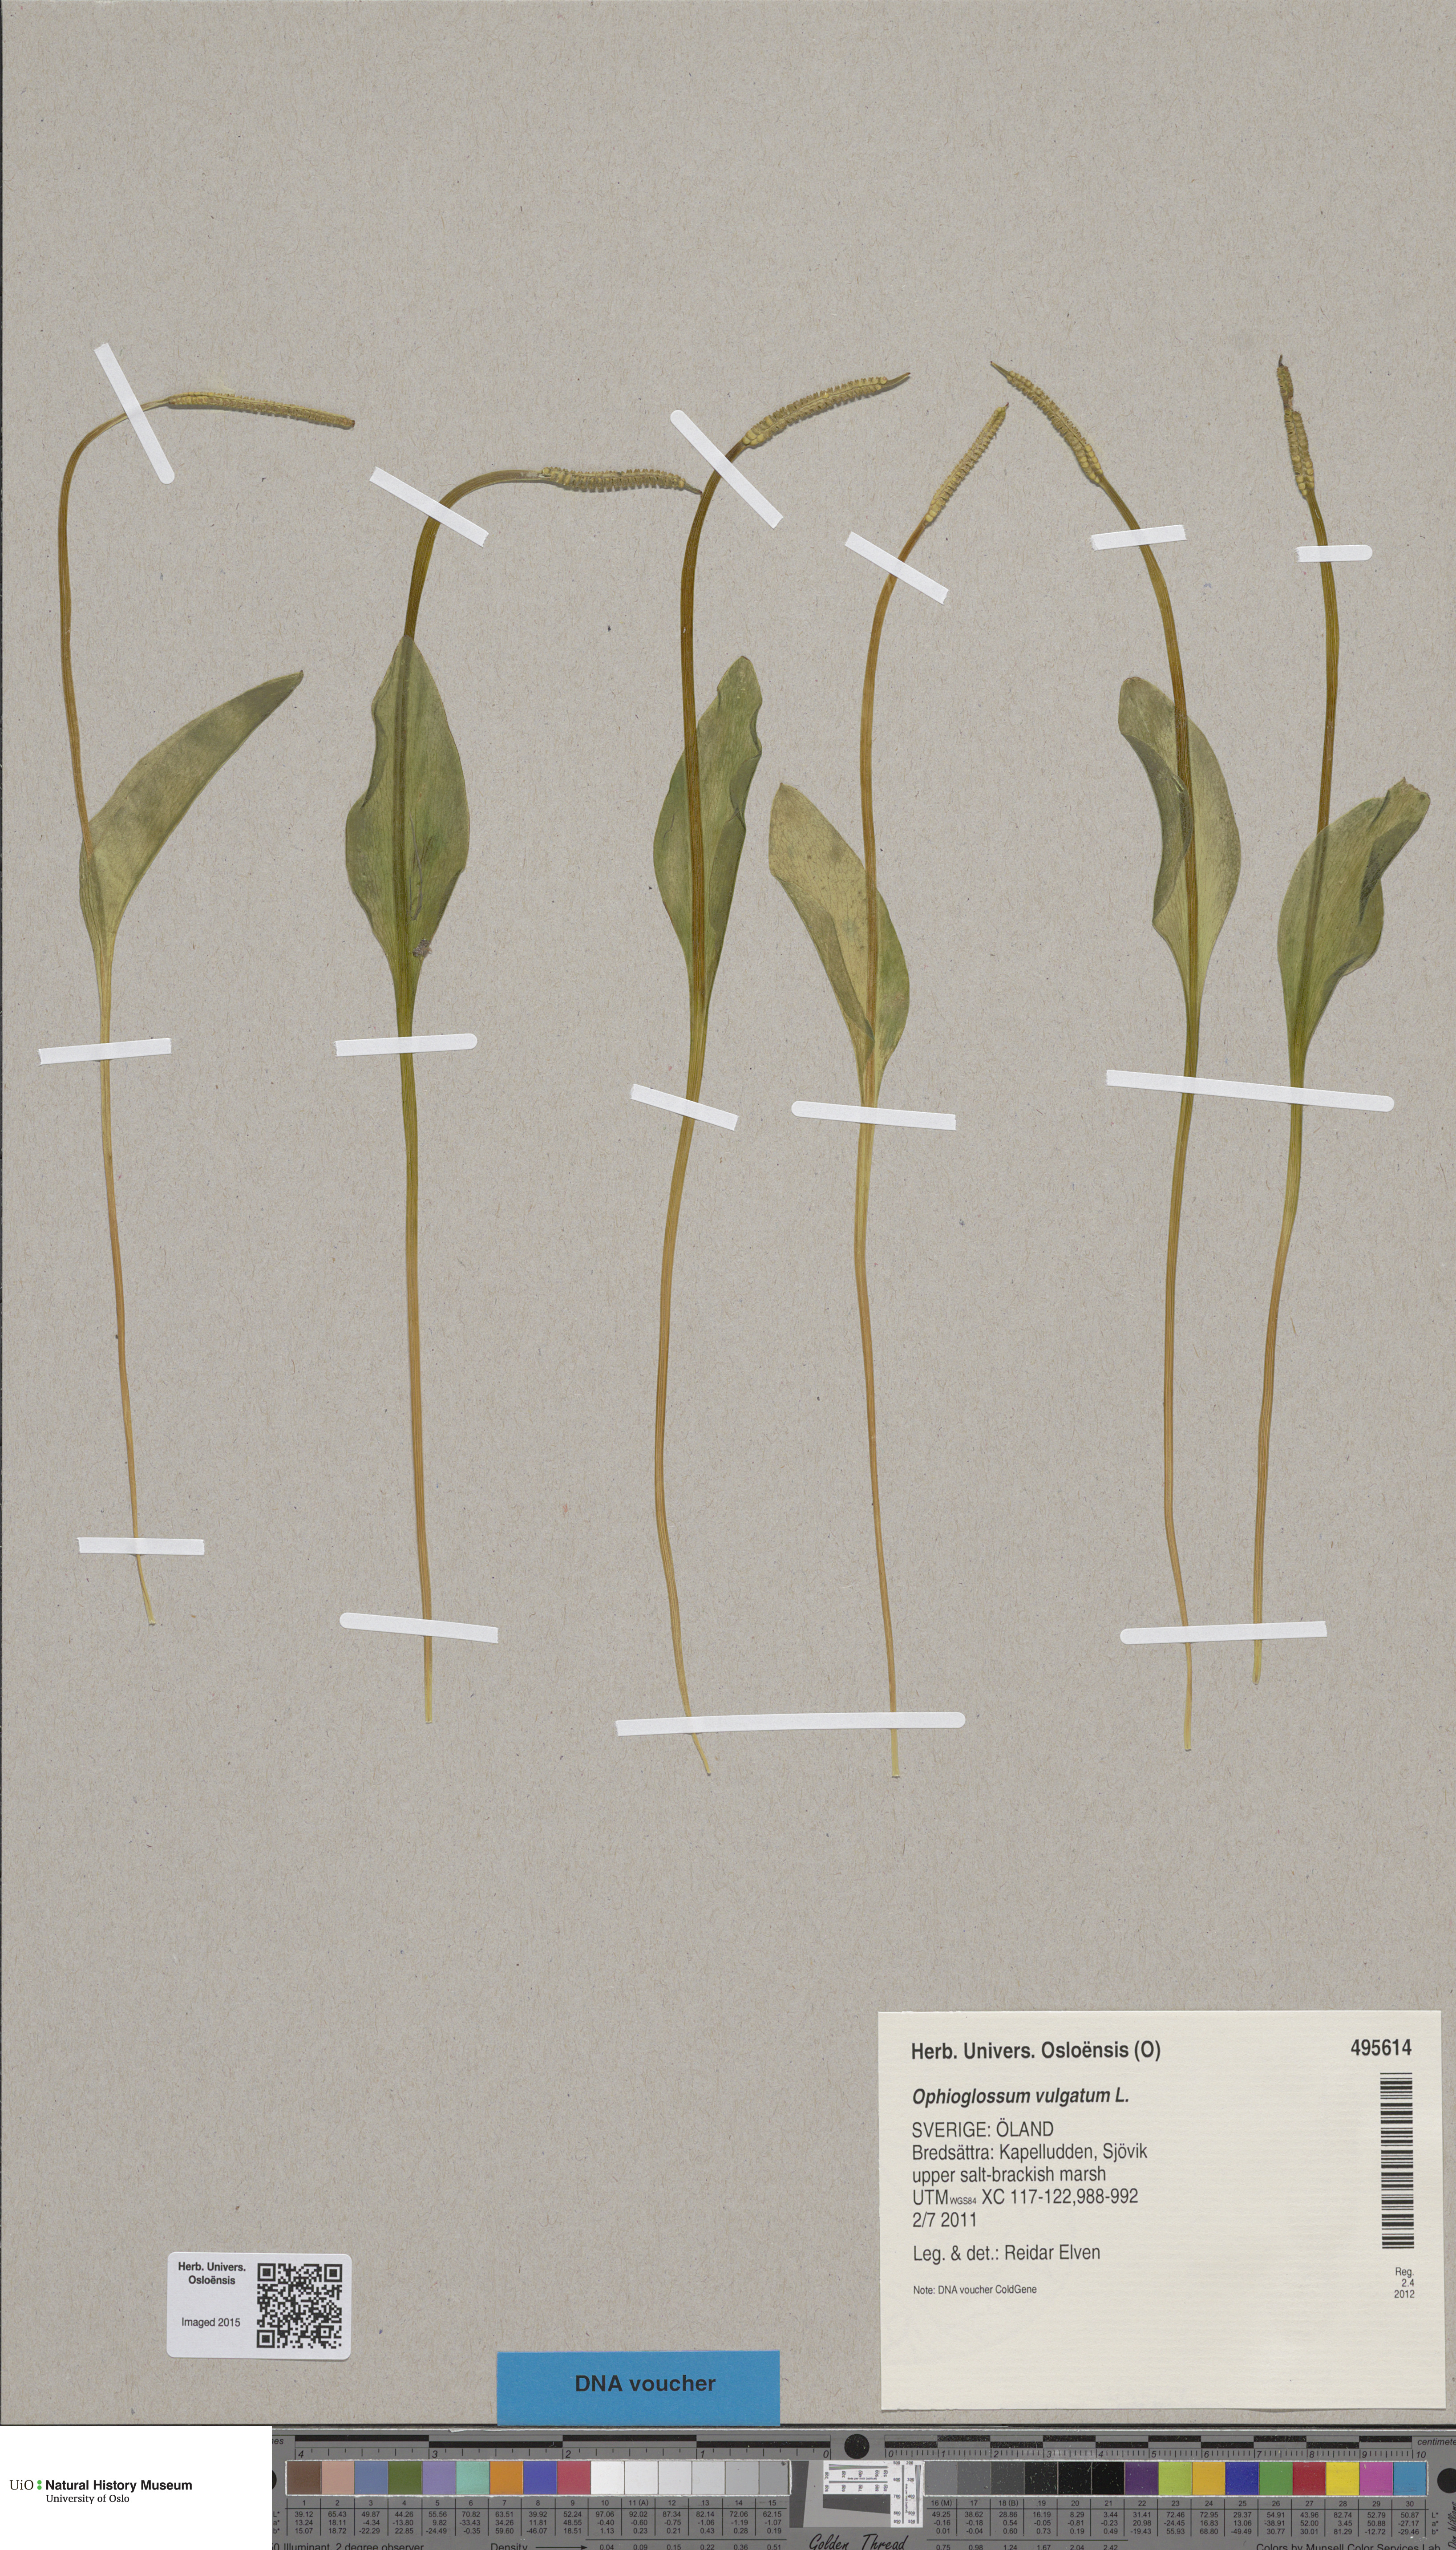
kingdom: Plantae
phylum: Tracheophyta
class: Polypodiopsida
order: Ophioglossales
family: Ophioglossaceae
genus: Ophioglossum
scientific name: Ophioglossum vulgatum
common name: Adder's-tongue
